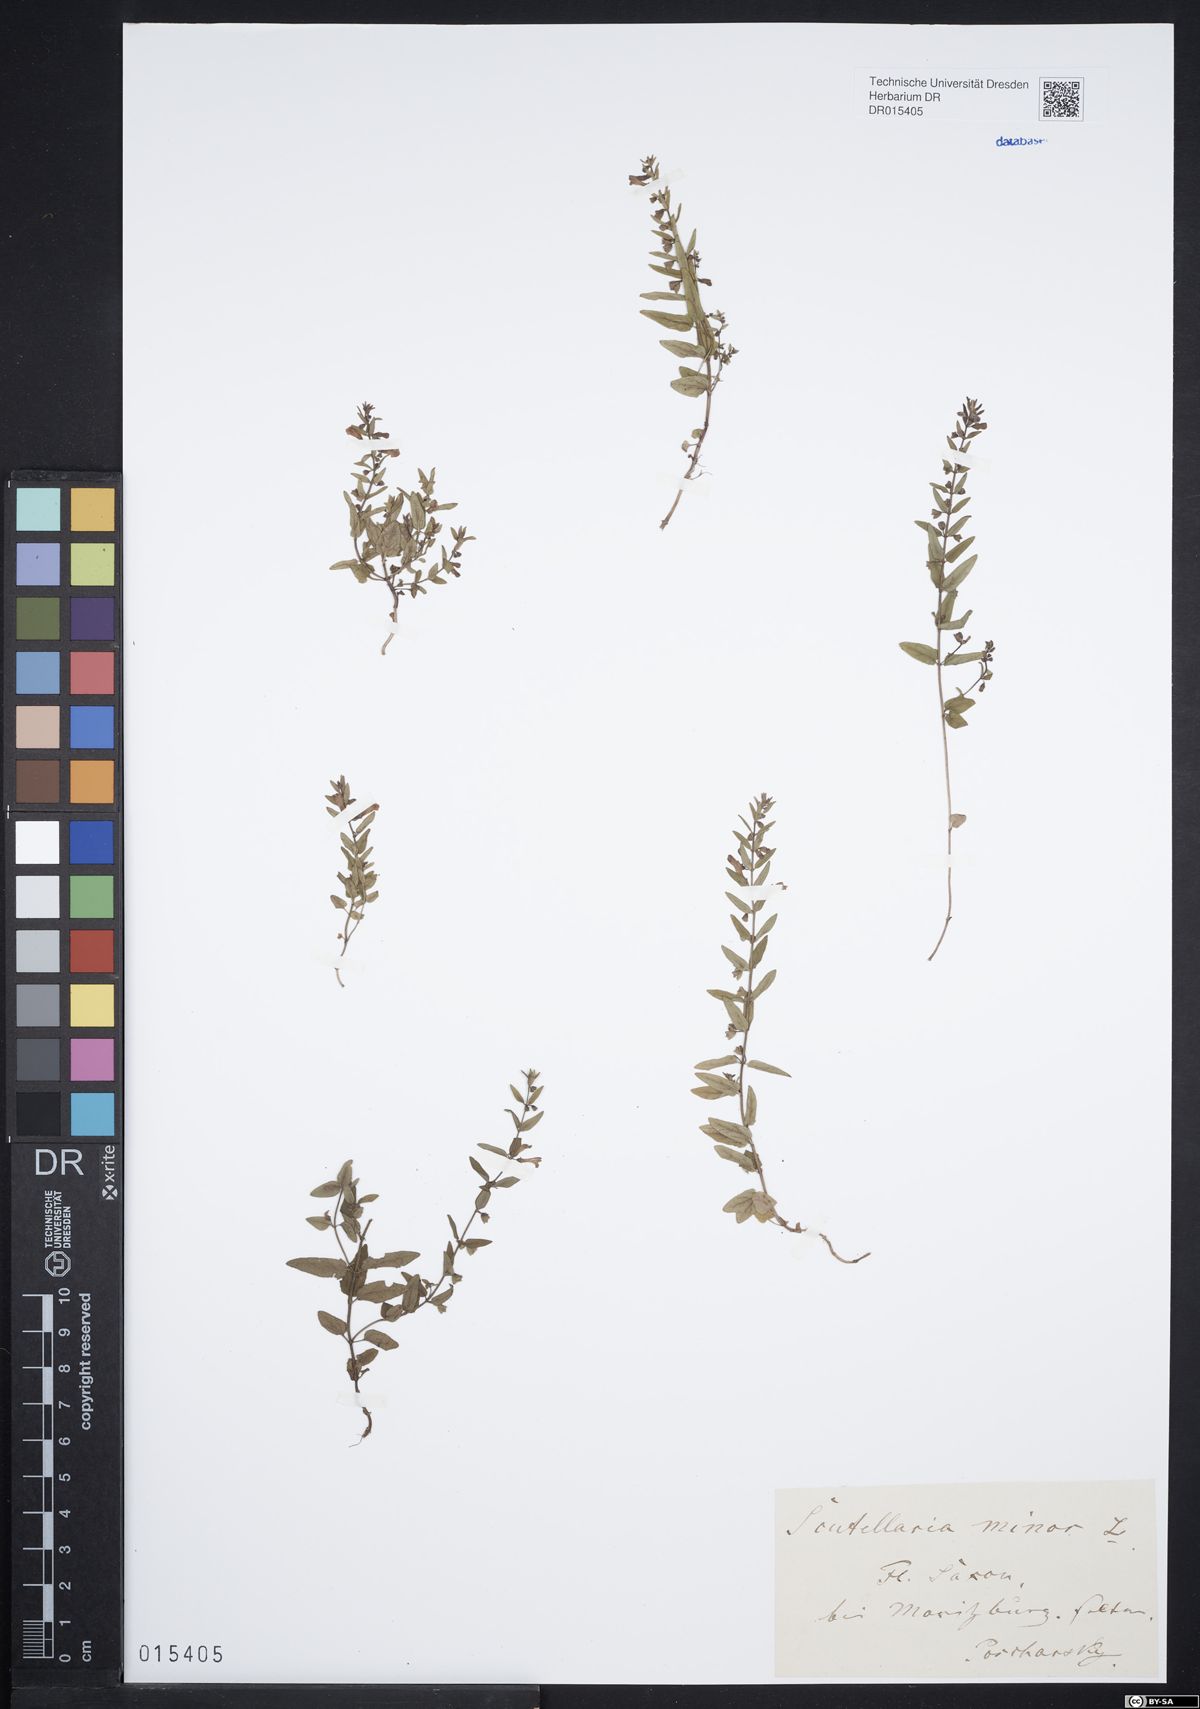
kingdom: Plantae
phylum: Tracheophyta
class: Magnoliopsida
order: Lamiales
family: Lamiaceae
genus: Scutellaria
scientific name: Scutellaria minor
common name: Lesser skullcap
